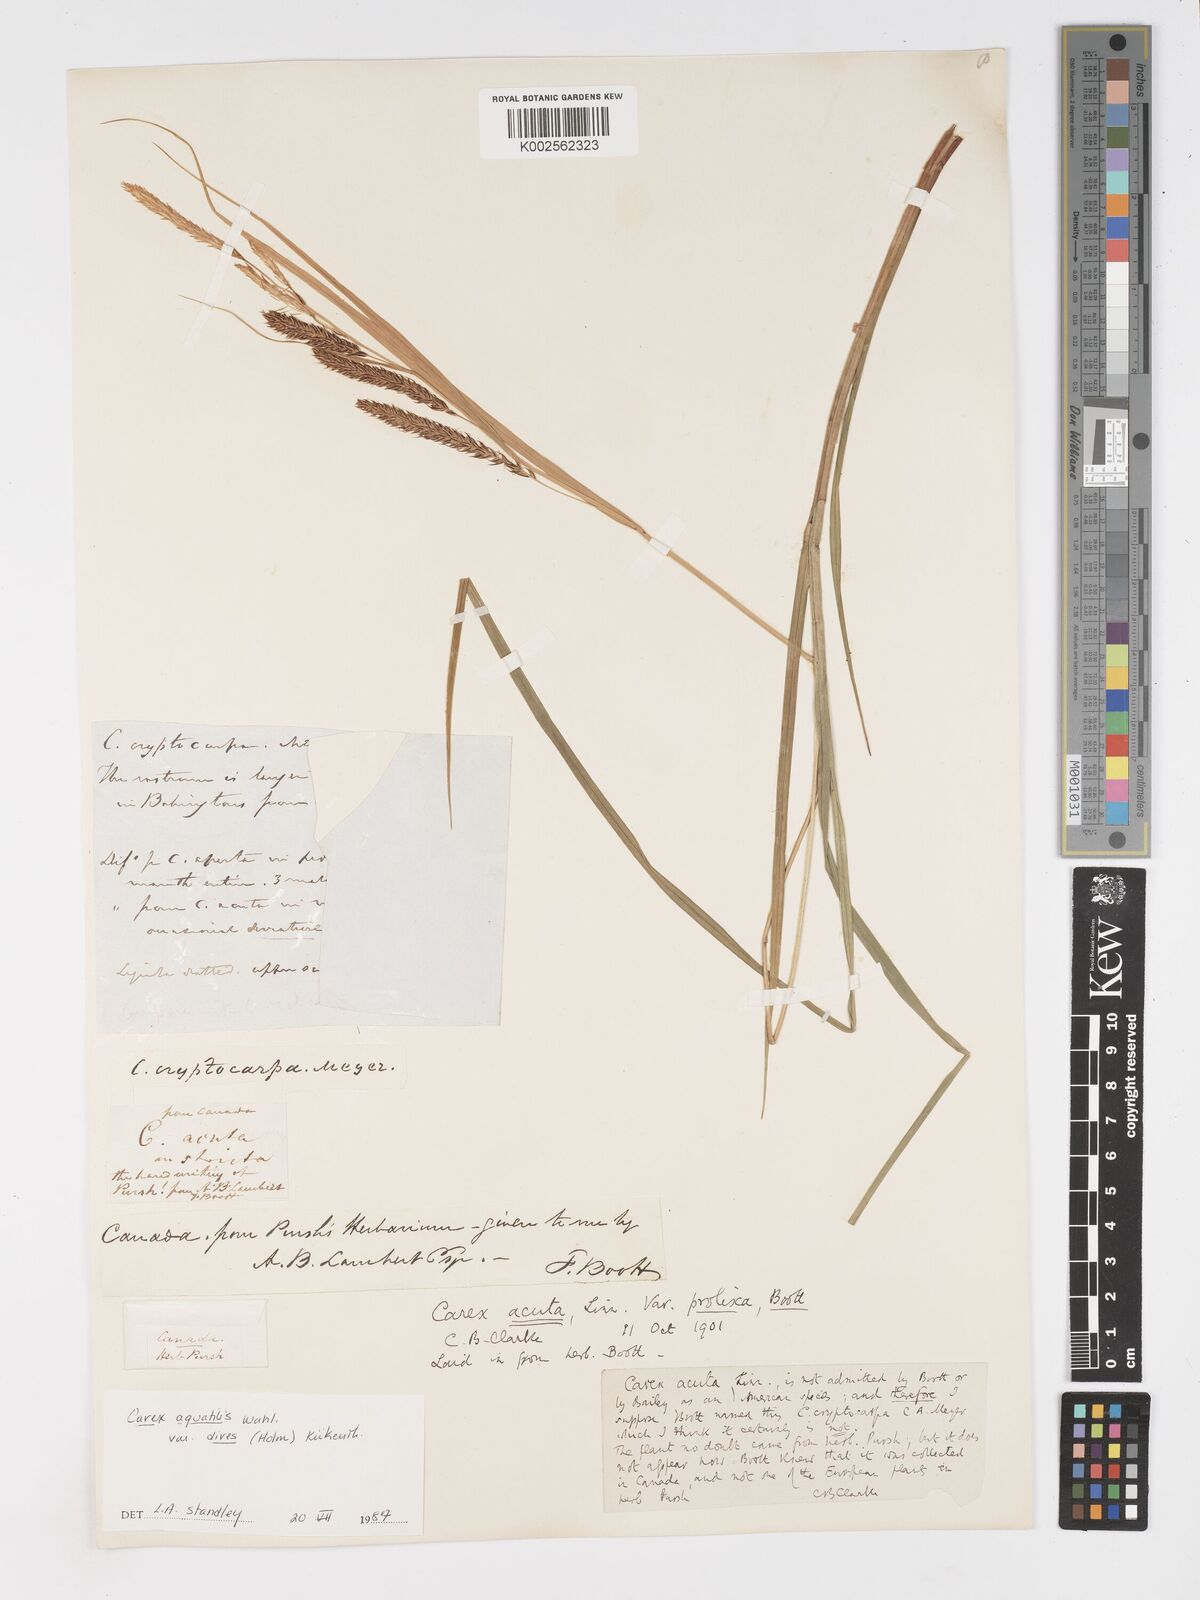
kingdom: Plantae
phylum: Tracheophyta
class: Liliopsida
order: Poales
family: Cyperaceae
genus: Carex
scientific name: Carex aquatilis
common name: Water sedge
